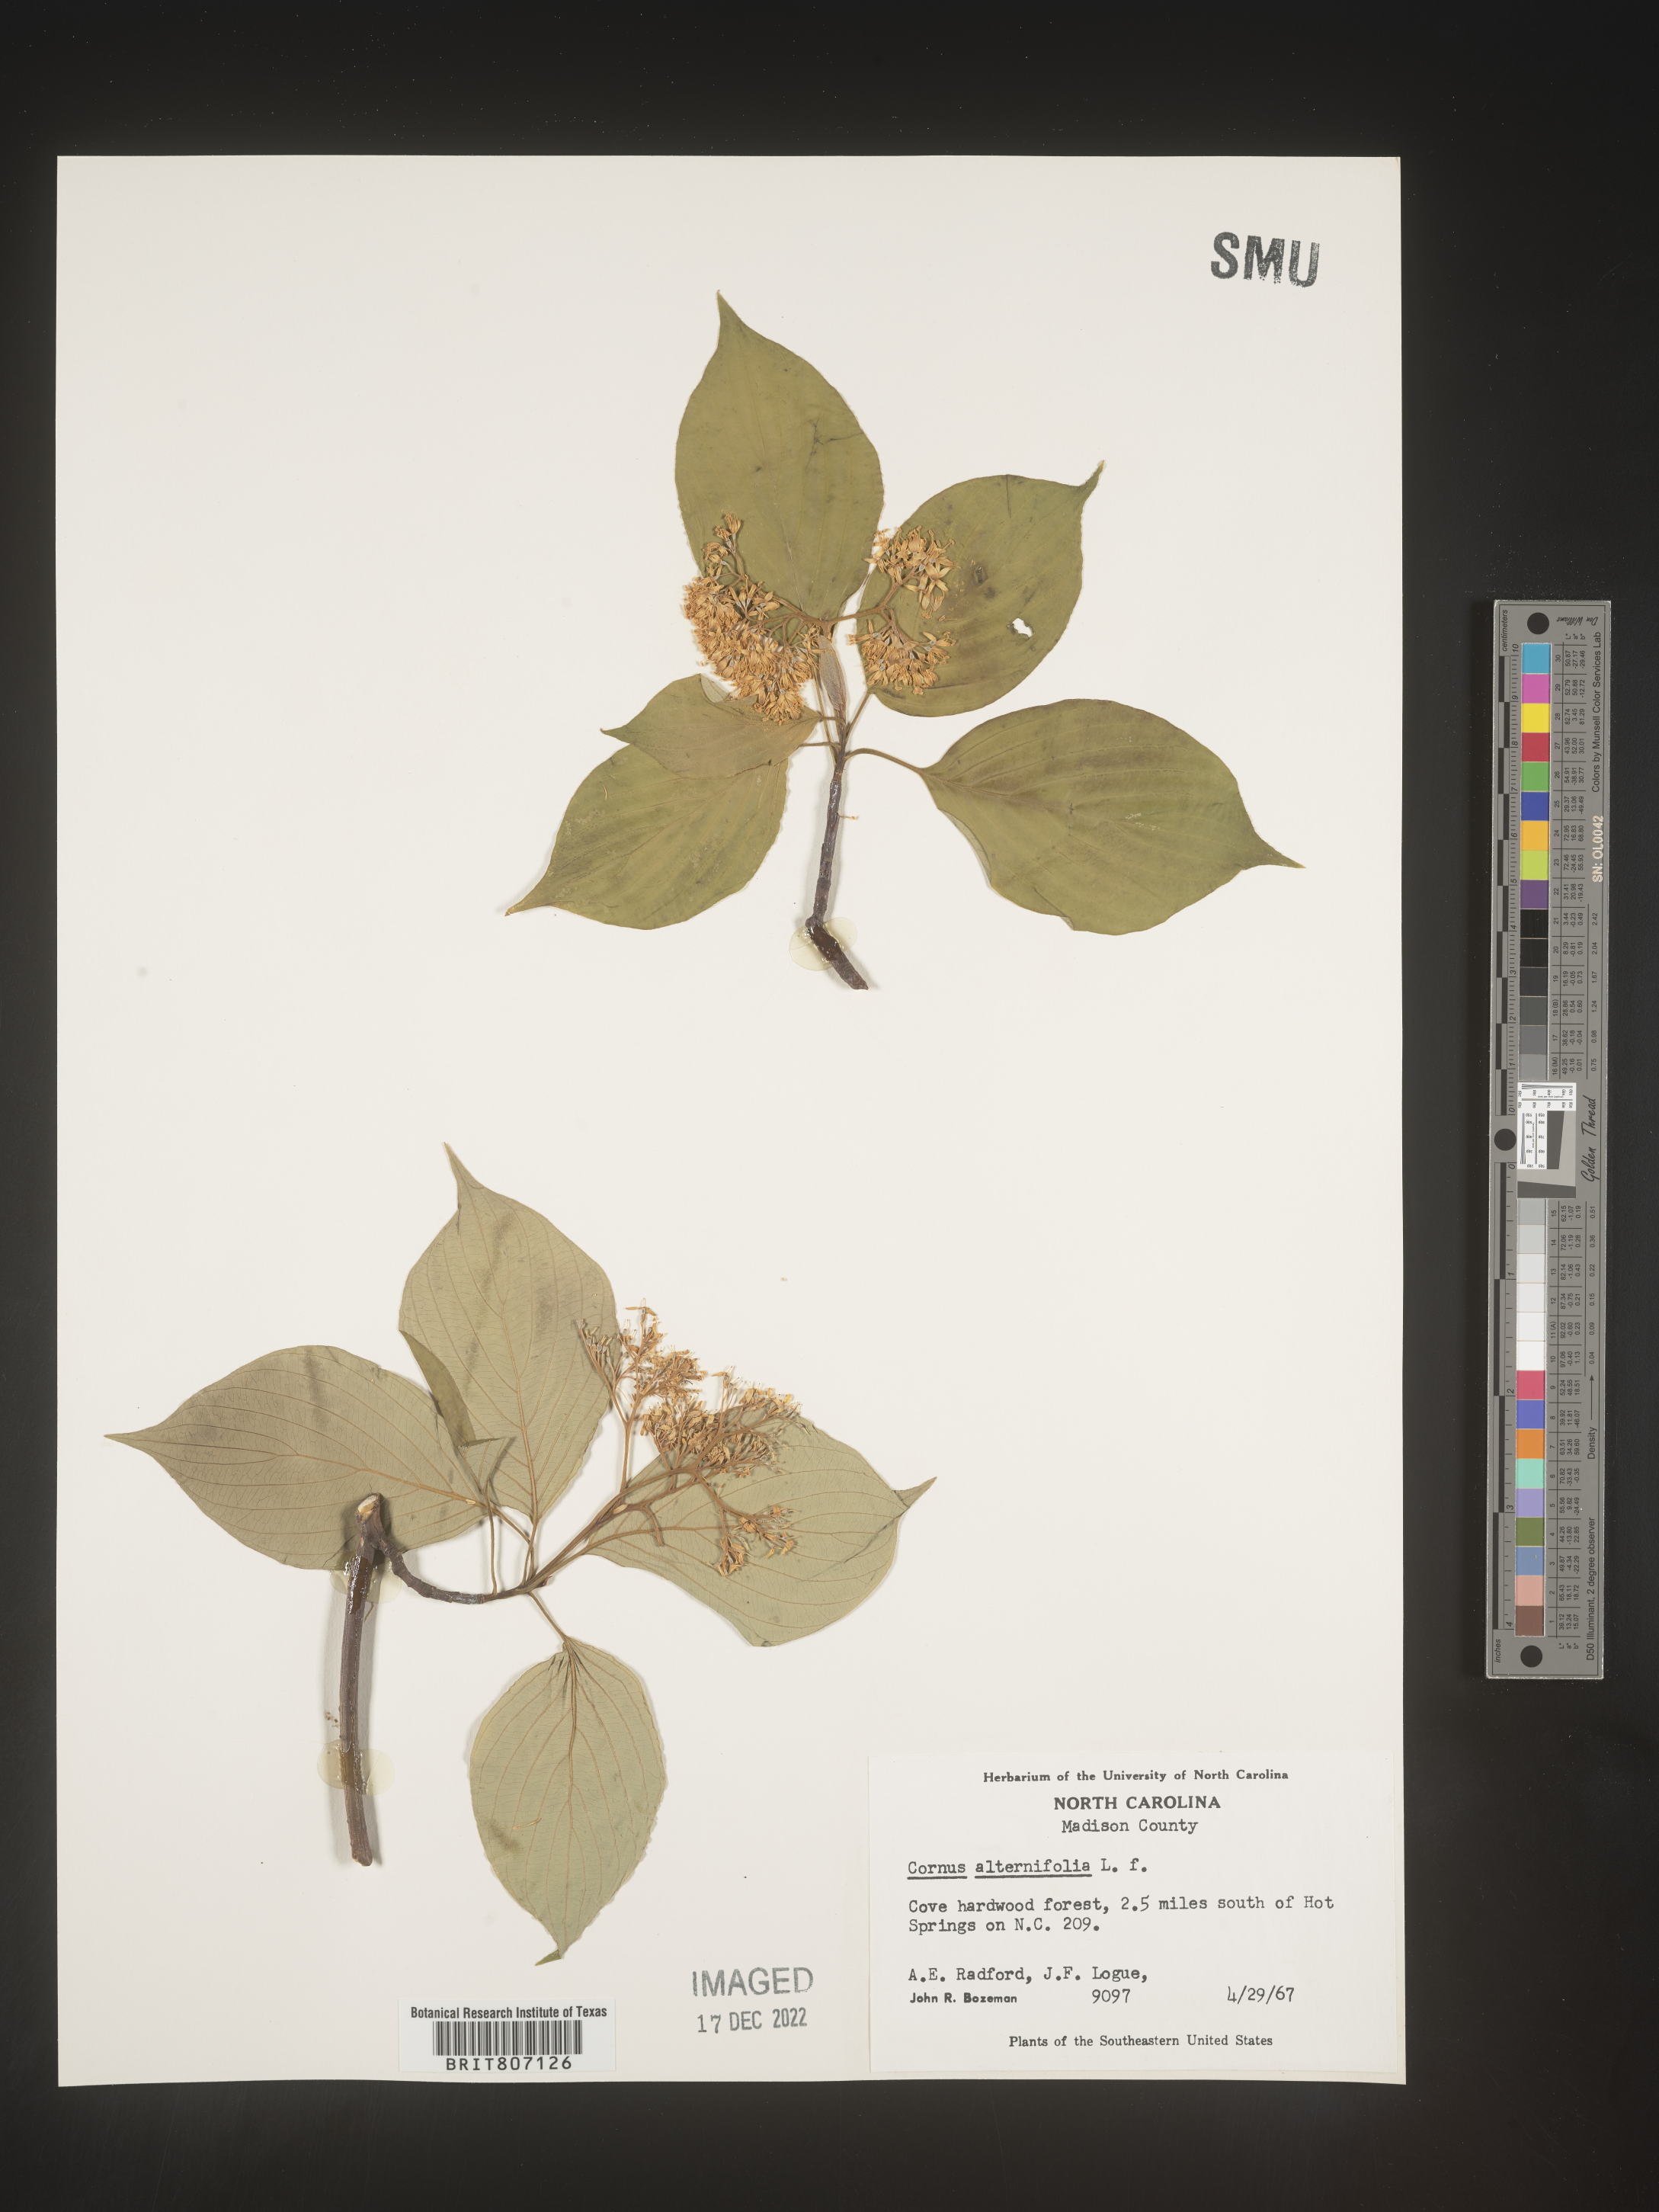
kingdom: Plantae
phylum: Tracheophyta
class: Magnoliopsida
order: Cornales
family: Cornaceae
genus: Cornus
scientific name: Cornus alternifolia
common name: Pagoda dogwood
